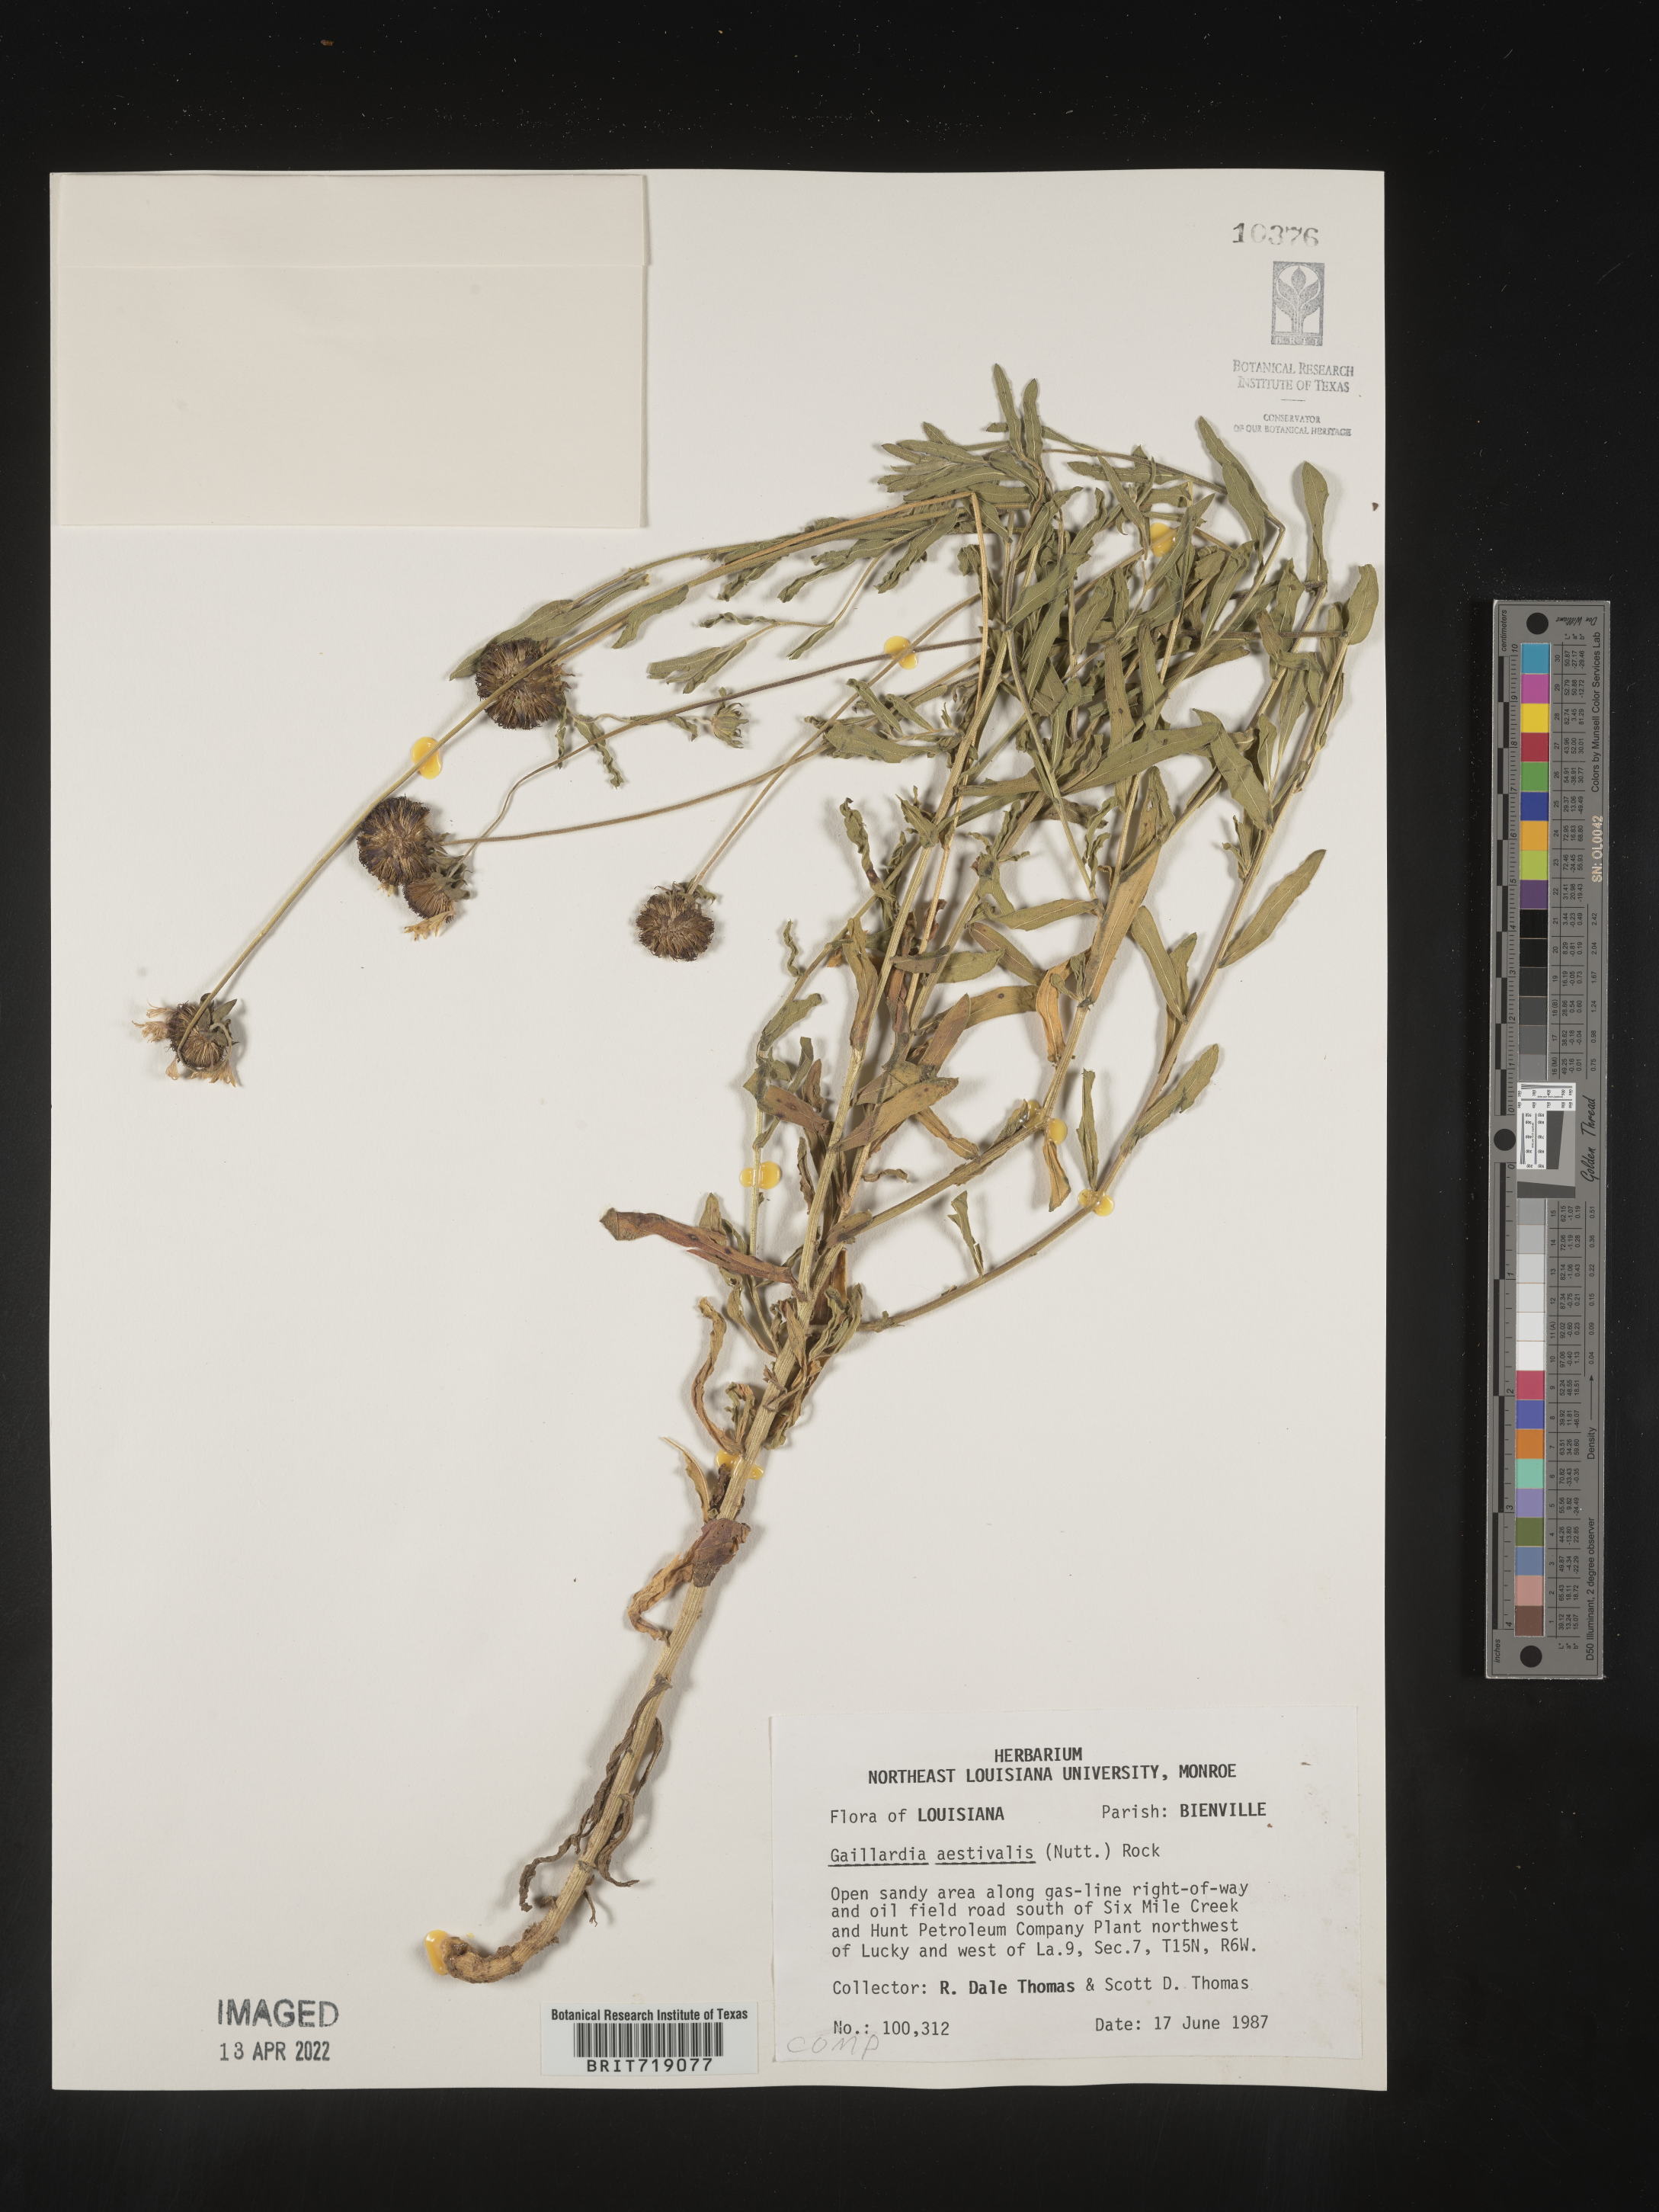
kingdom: Plantae
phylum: Tracheophyta
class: Magnoliopsida
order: Asterales
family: Asteraceae
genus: Gaillardia
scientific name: Gaillardia aestivalis
